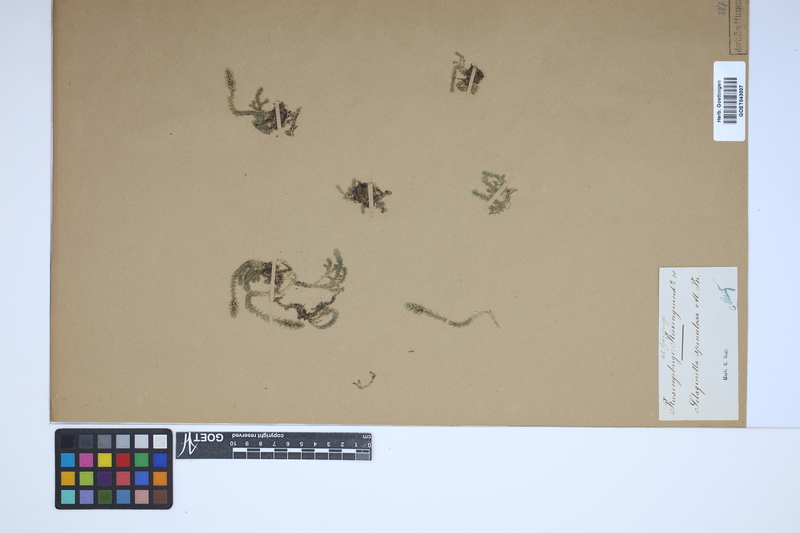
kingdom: Plantae
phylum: Tracheophyta
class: Lycopodiopsida
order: Selaginellales
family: Selaginellaceae
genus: Selaginella
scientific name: Selaginella selaginoides
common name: Prickly mountain-moss
